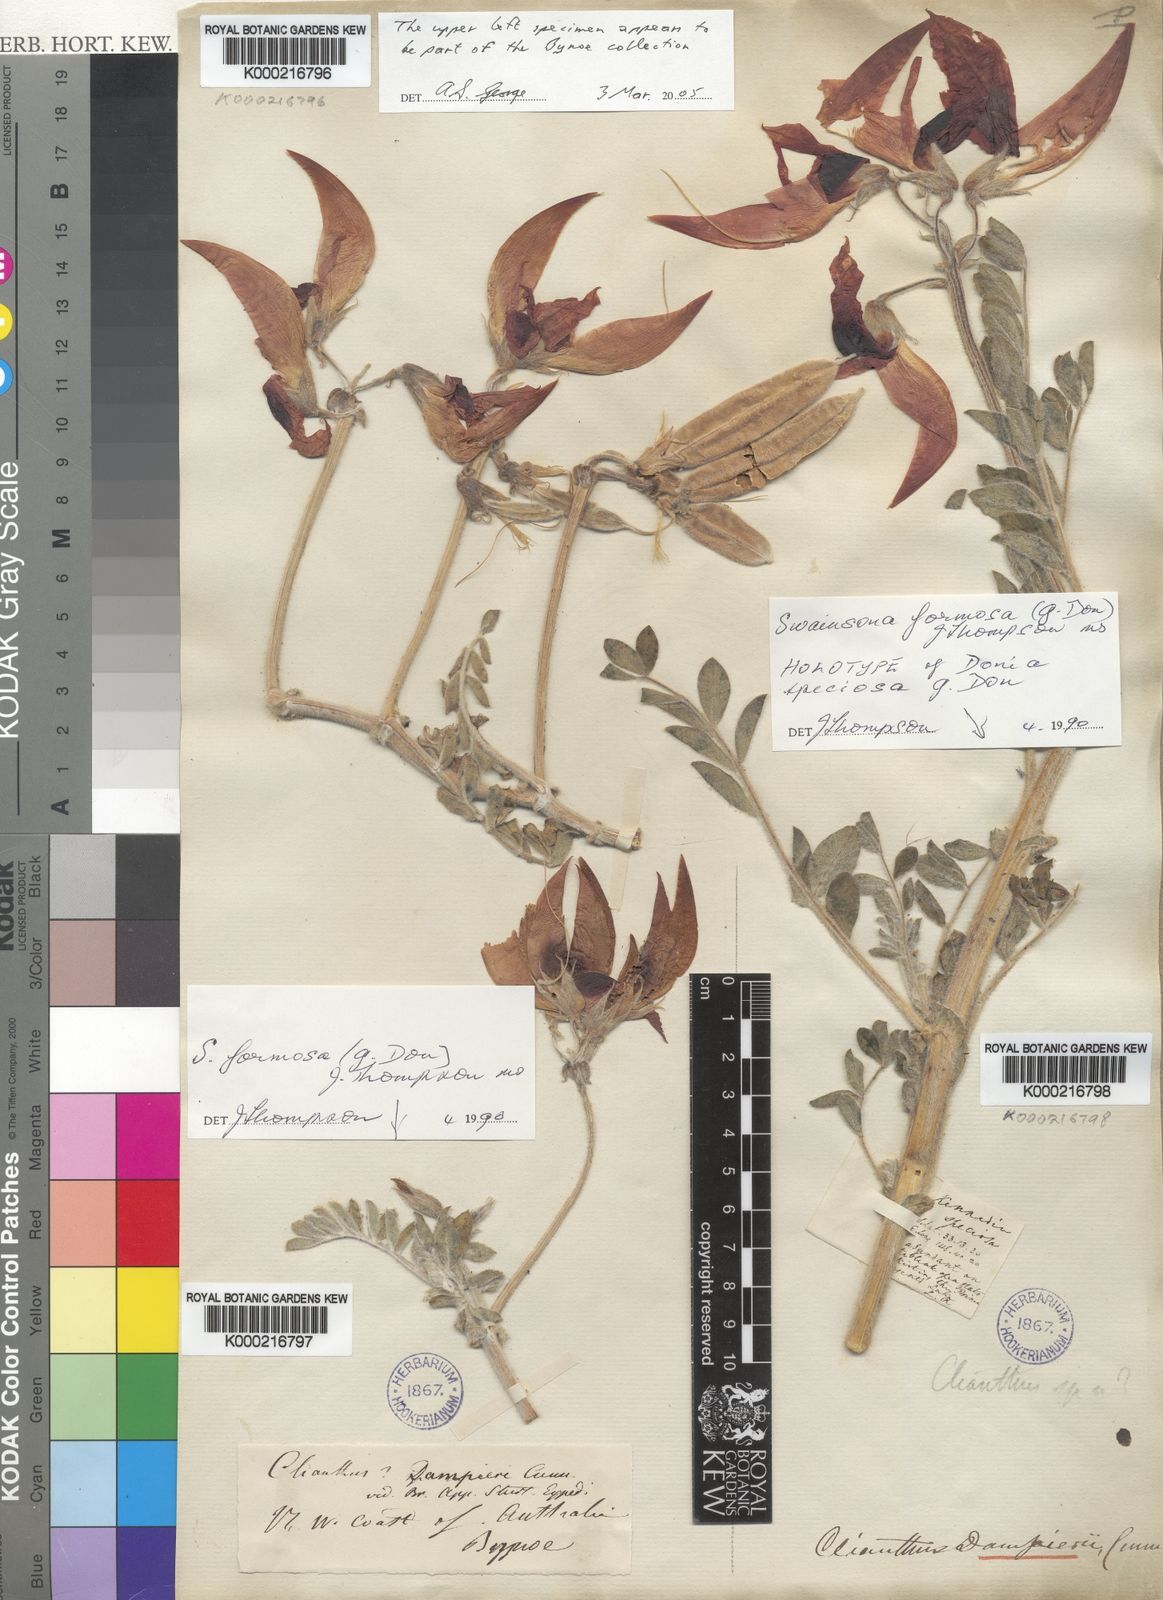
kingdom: Plantae
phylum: Tracheophyta
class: Magnoliopsida
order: Fabales
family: Fabaceae
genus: Swainsona
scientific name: Swainsona formosa
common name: Sturt's desert-pea
